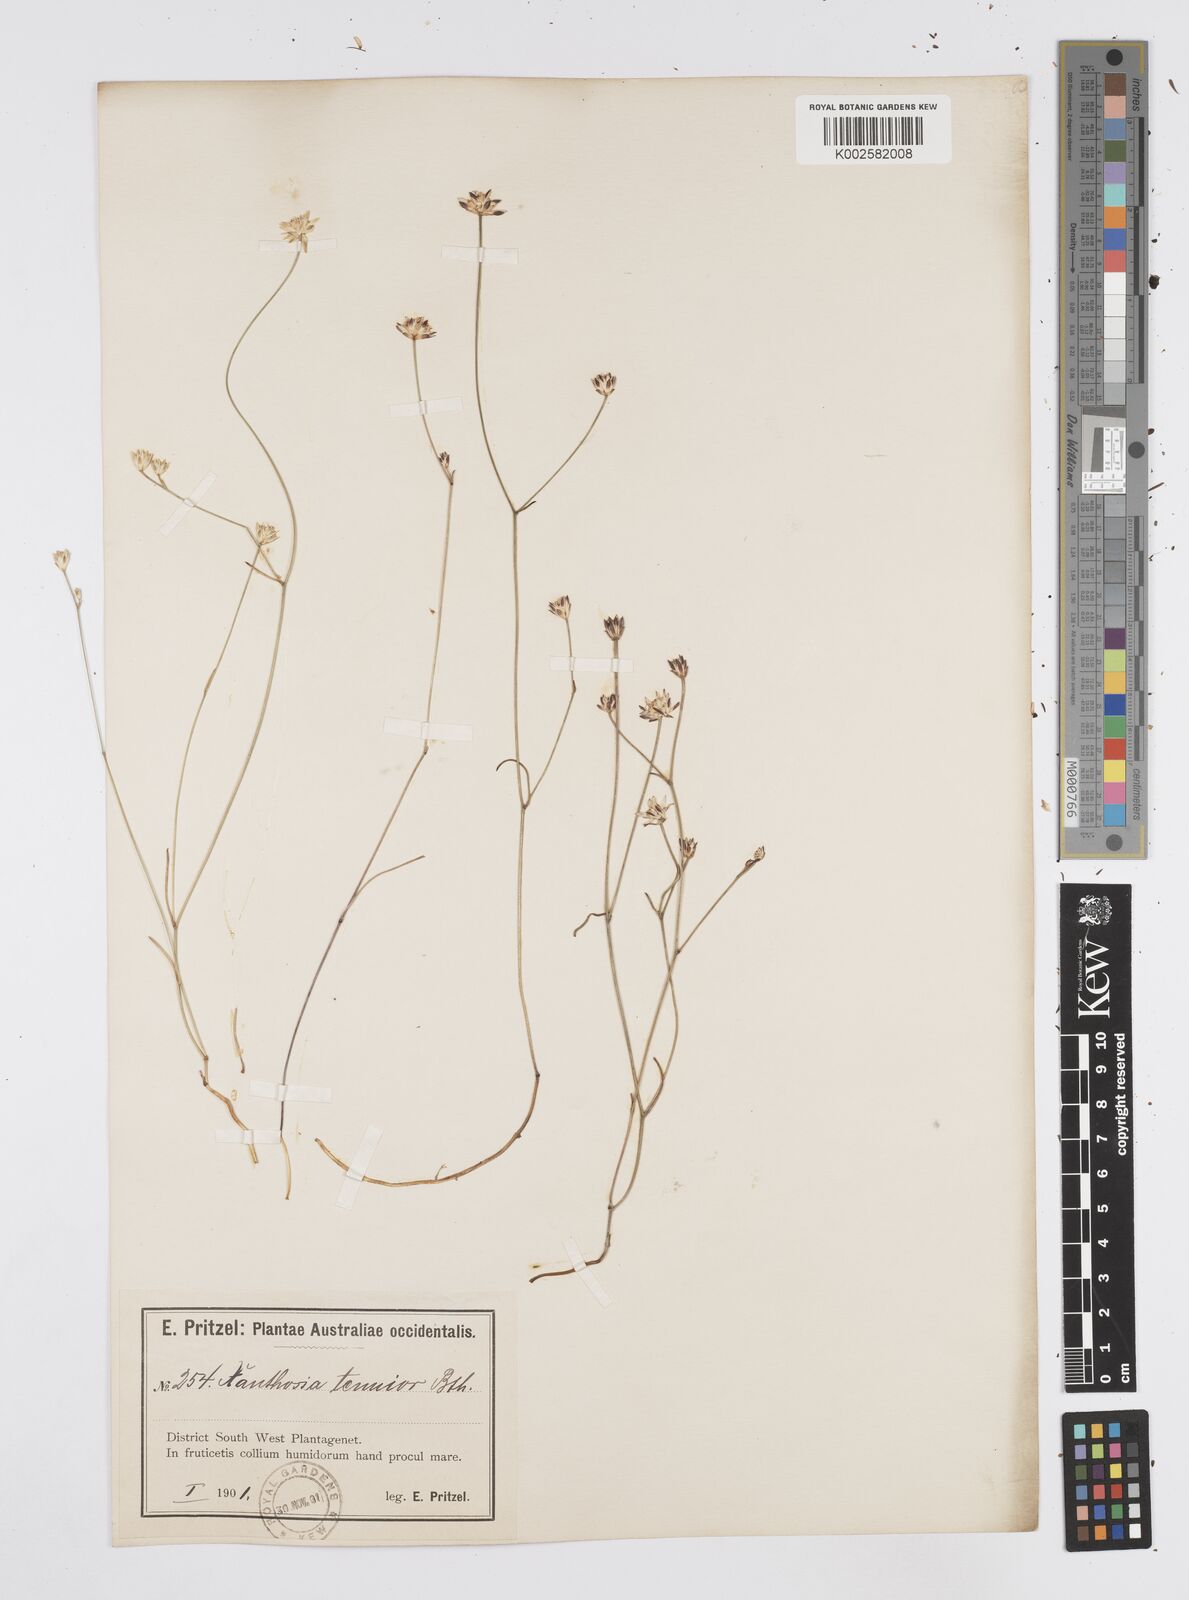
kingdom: Plantae
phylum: Tracheophyta
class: Magnoliopsida
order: Apiales
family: Apiaceae
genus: Schoenolaena
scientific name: Schoenolaena juncea
